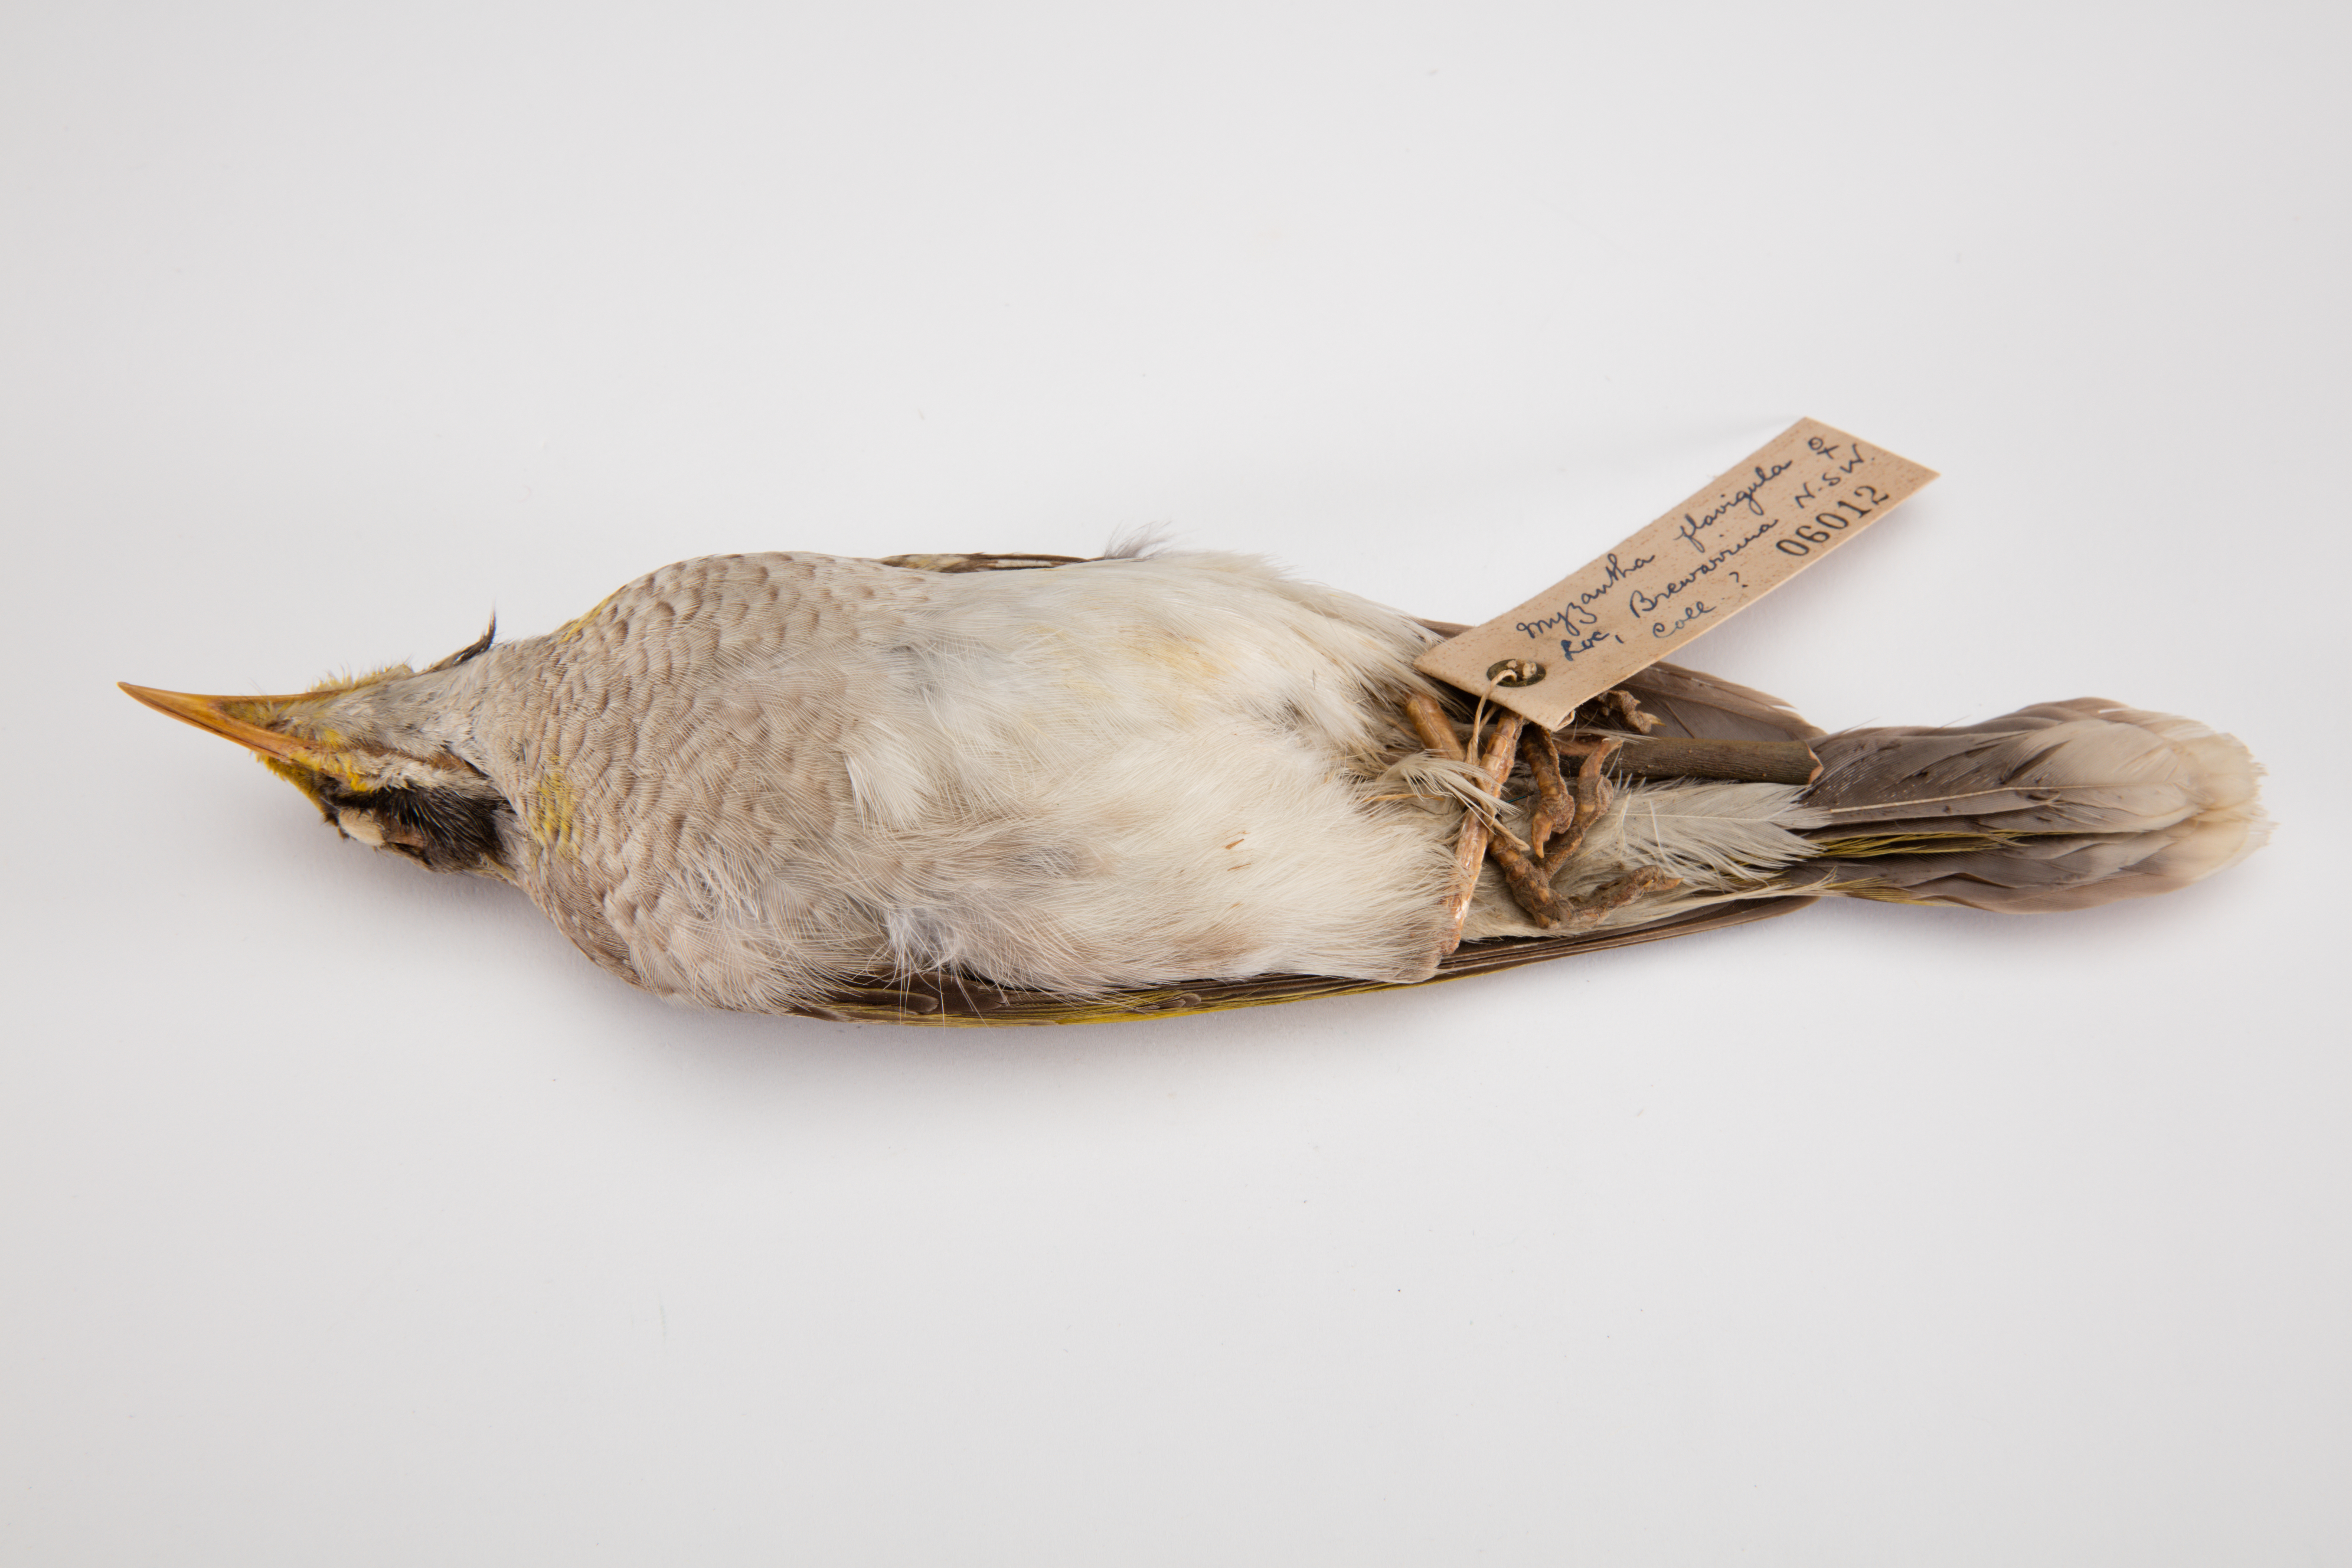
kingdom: Animalia
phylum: Chordata
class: Aves
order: Passeriformes
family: Meliphagidae
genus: Manorina
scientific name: Manorina flavigula
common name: Yellow-throated miner
